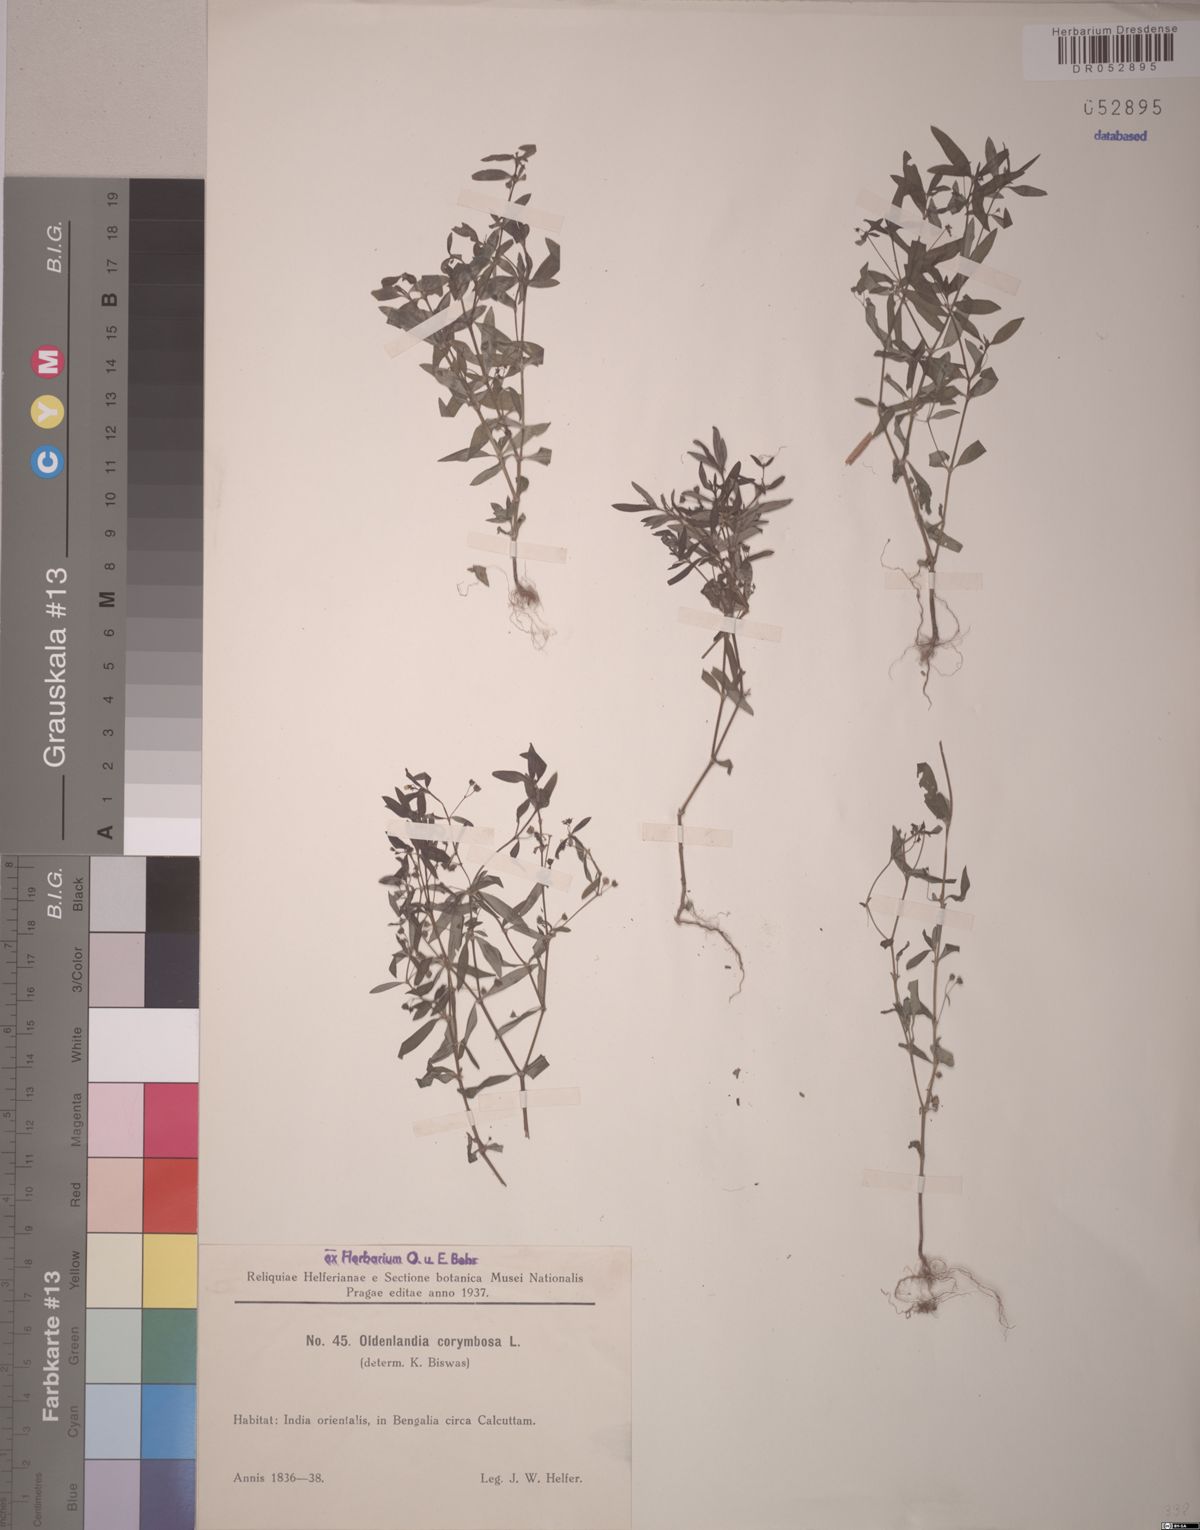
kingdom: Plantae
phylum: Tracheophyta
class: Magnoliopsida
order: Gentianales
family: Rubiaceae
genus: Oldenlandia
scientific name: Oldenlandia corymbosa
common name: Flat-top mille graines
